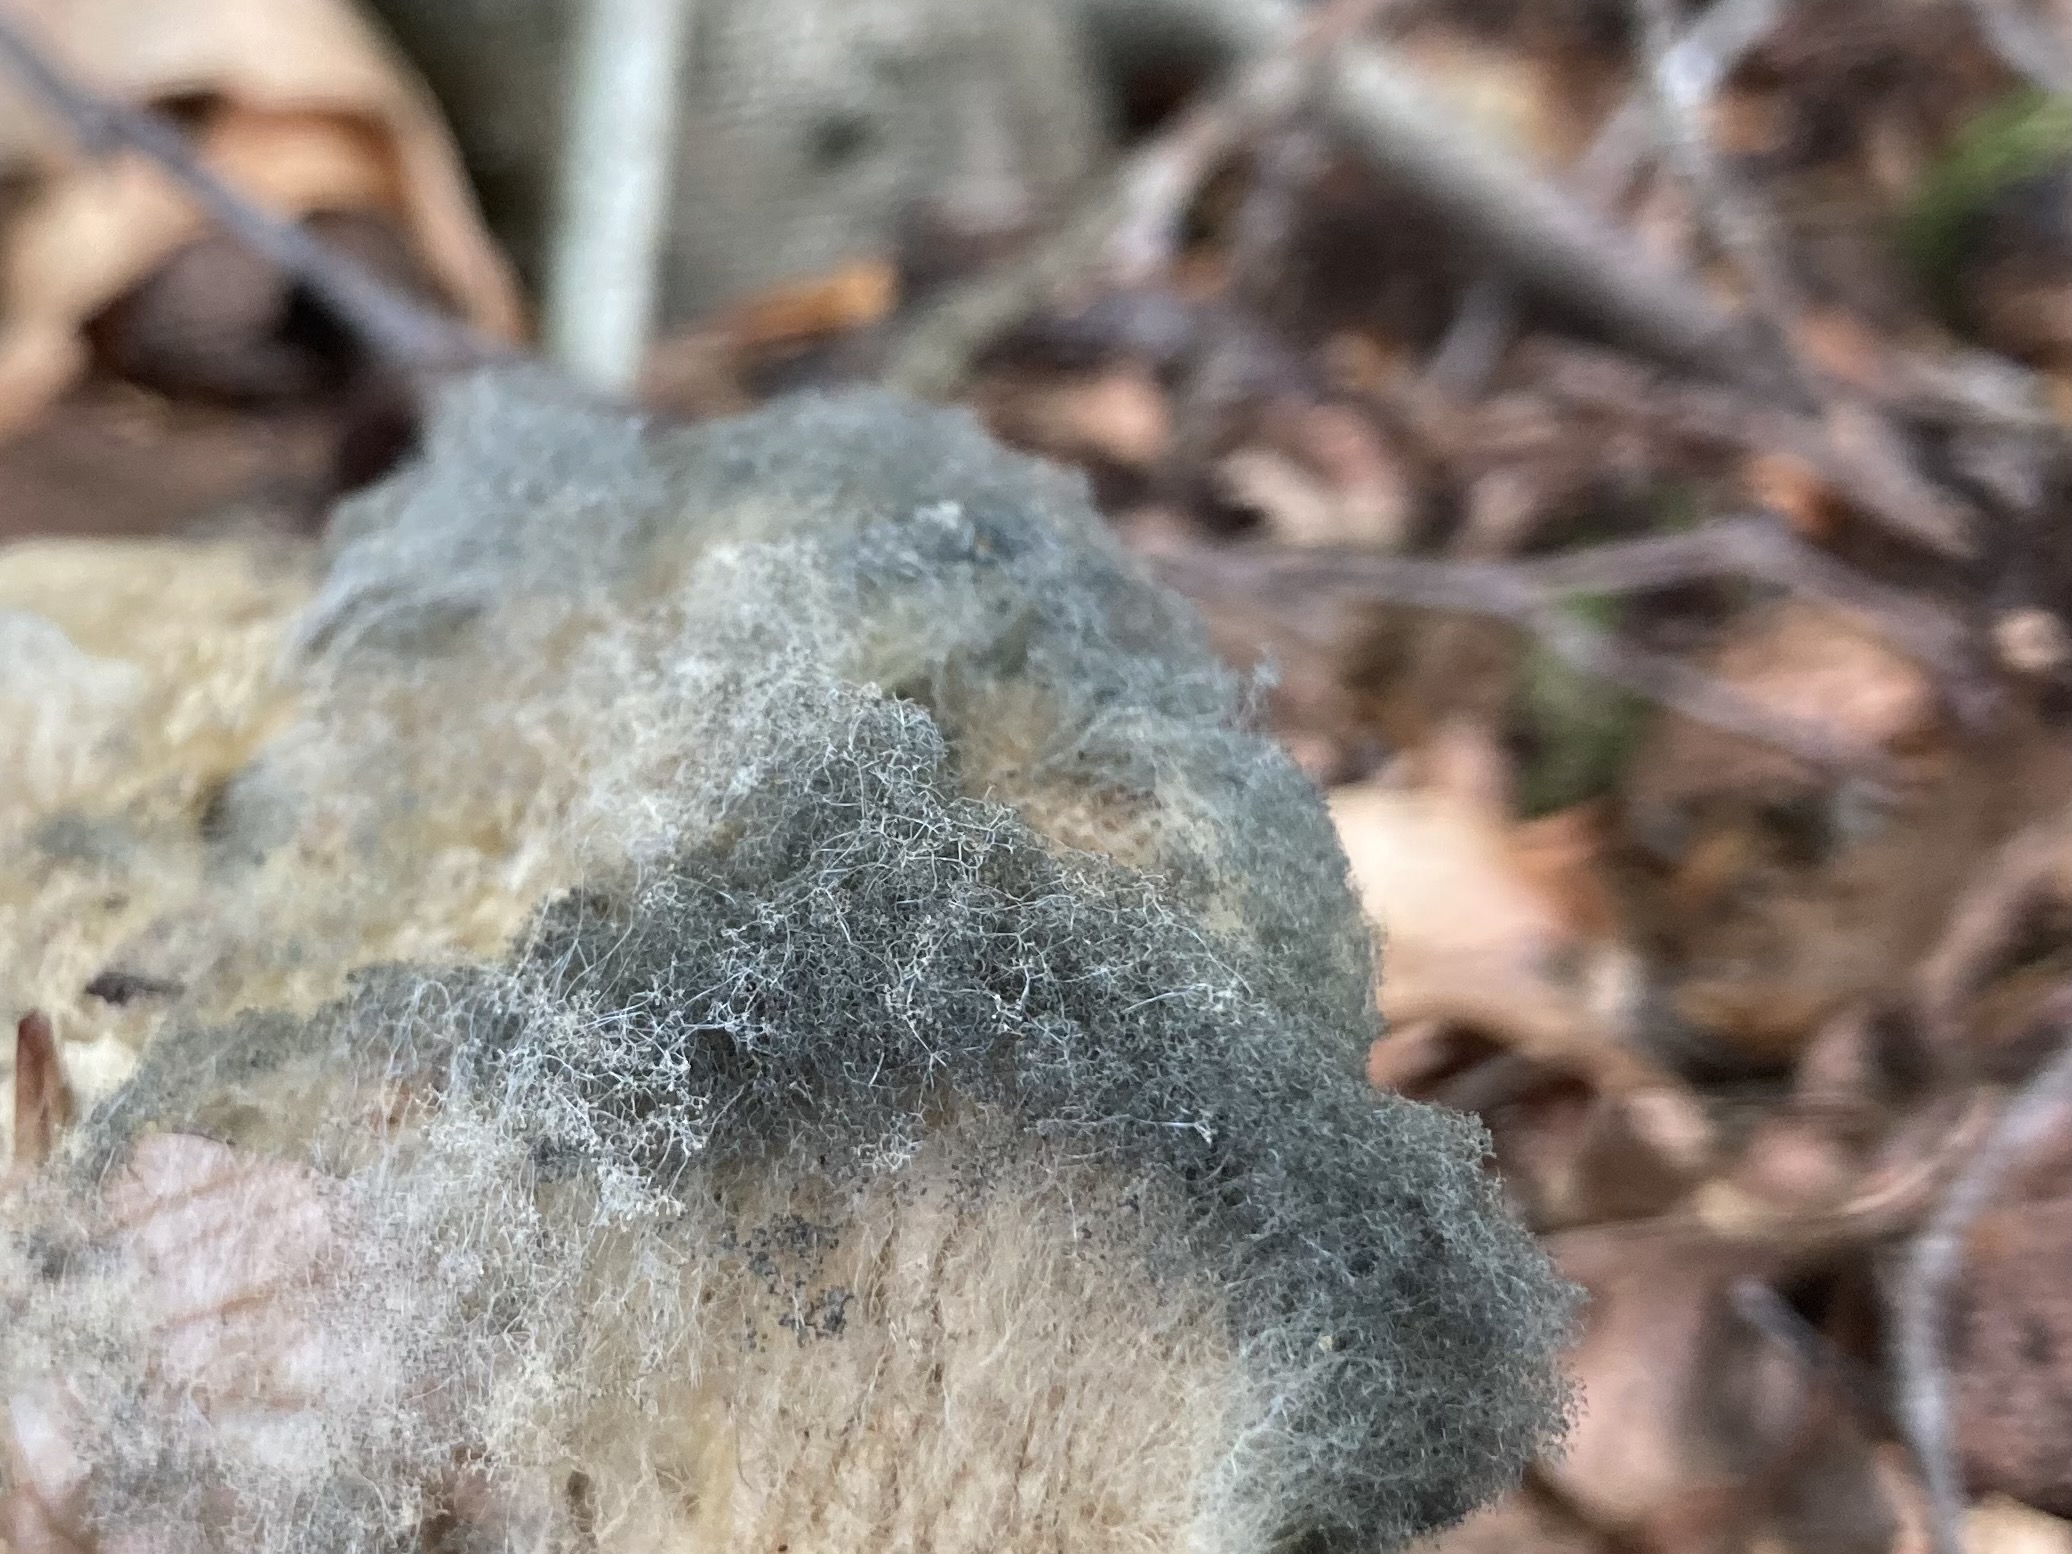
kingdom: Fungi
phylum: Mucoromycota
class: Mucoromycetes
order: Mucorales
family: Rhizopodaceae
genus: Syzygites
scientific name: Syzygites megalocarpus
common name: nissenål
